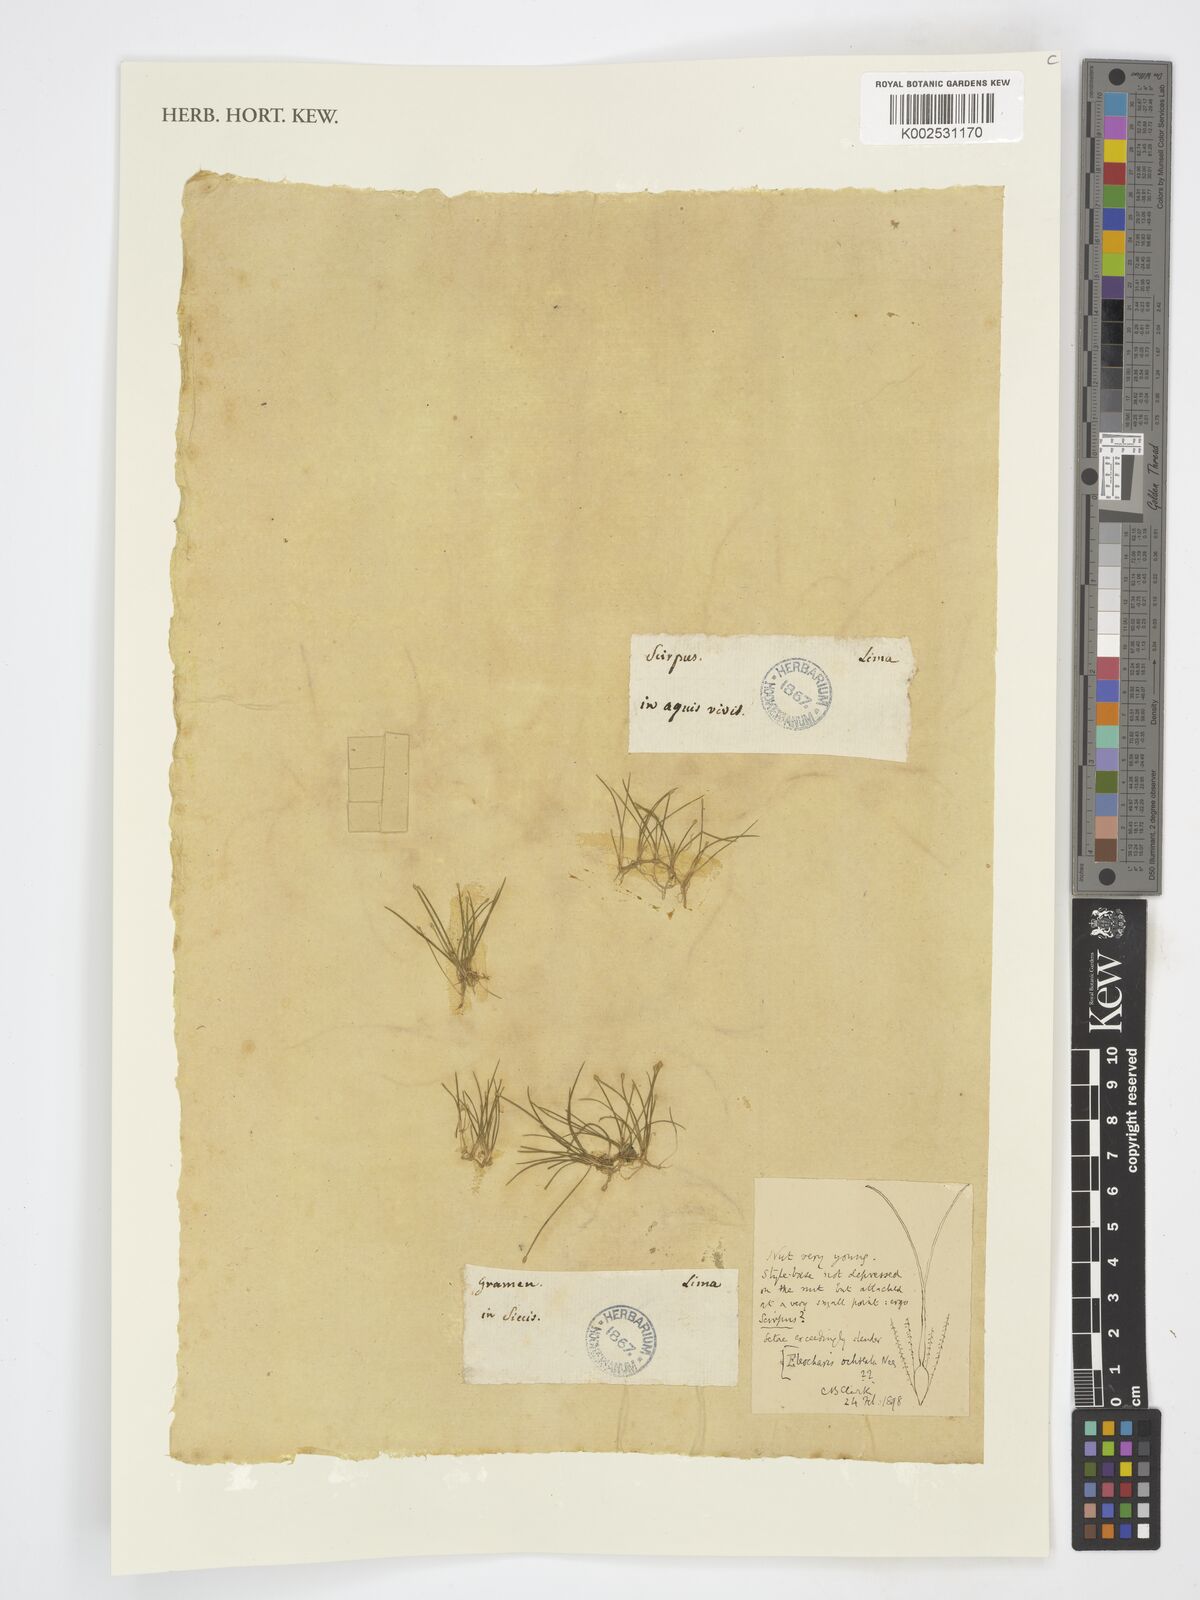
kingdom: Plantae
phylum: Tracheophyta
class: Liliopsida
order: Poales
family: Poaceae
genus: Vulpiella
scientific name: Vulpiella
